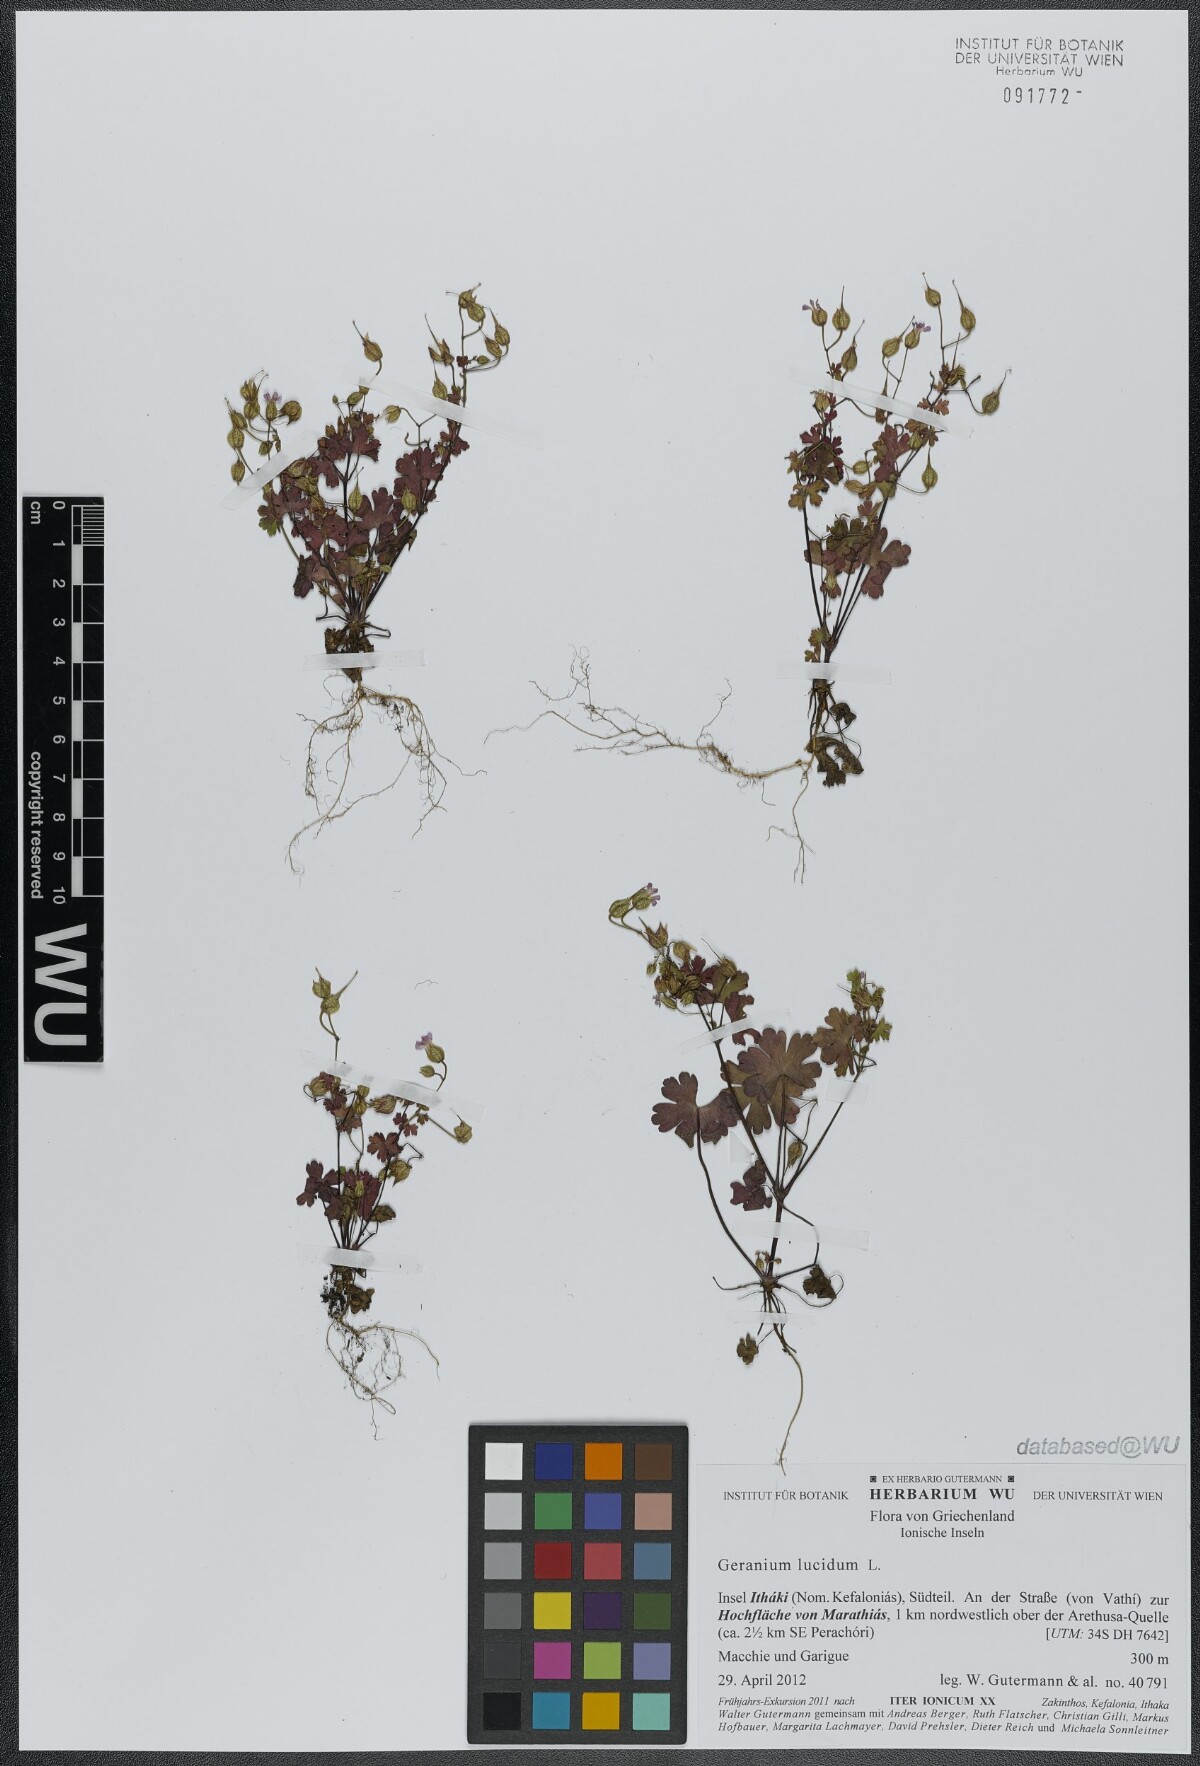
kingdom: Plantae
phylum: Tracheophyta
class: Magnoliopsida
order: Geraniales
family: Geraniaceae
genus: Geranium
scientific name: Geranium lucidum
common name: Shining crane's-bill
